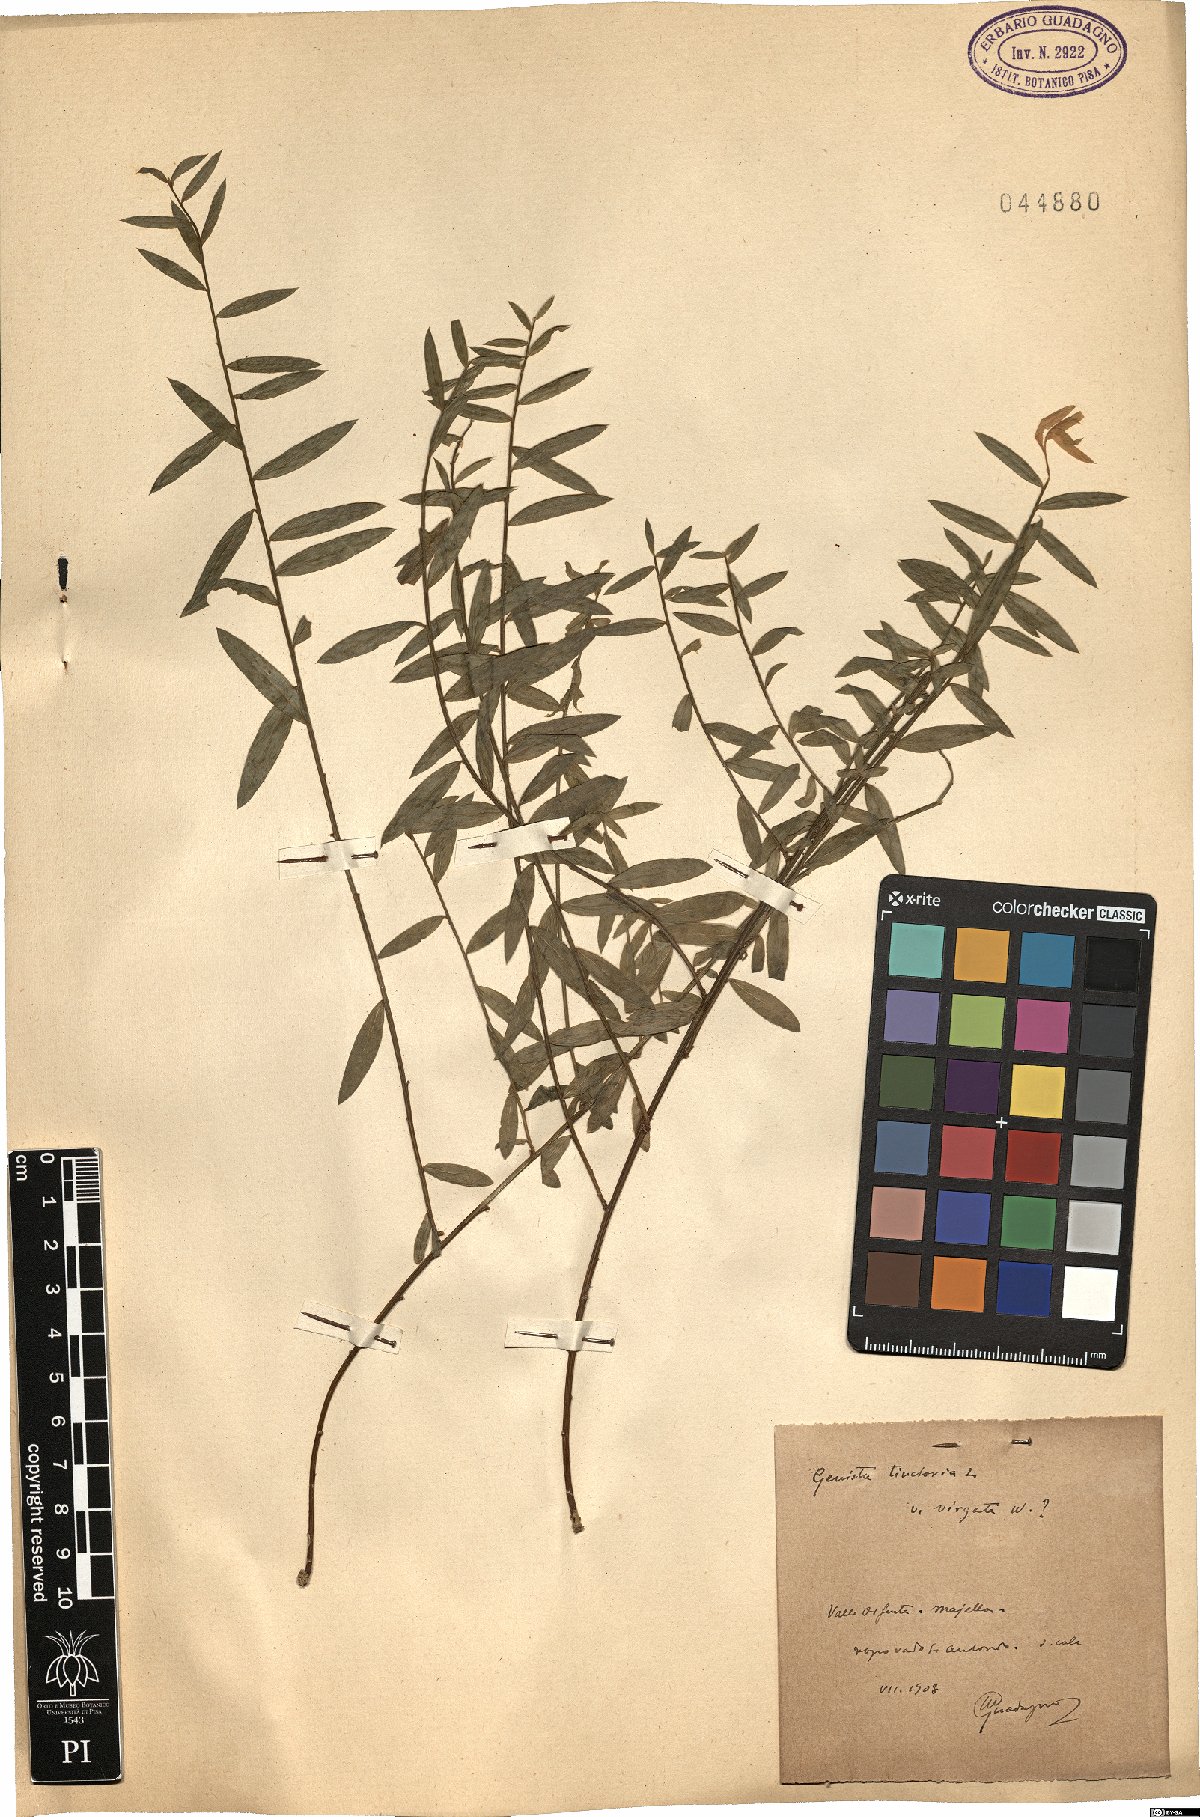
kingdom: Plantae
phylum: Tracheophyta
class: Magnoliopsida
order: Fabales
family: Fabaceae
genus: Genista
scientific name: Genista tinctoria
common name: Dyer's greenweed
